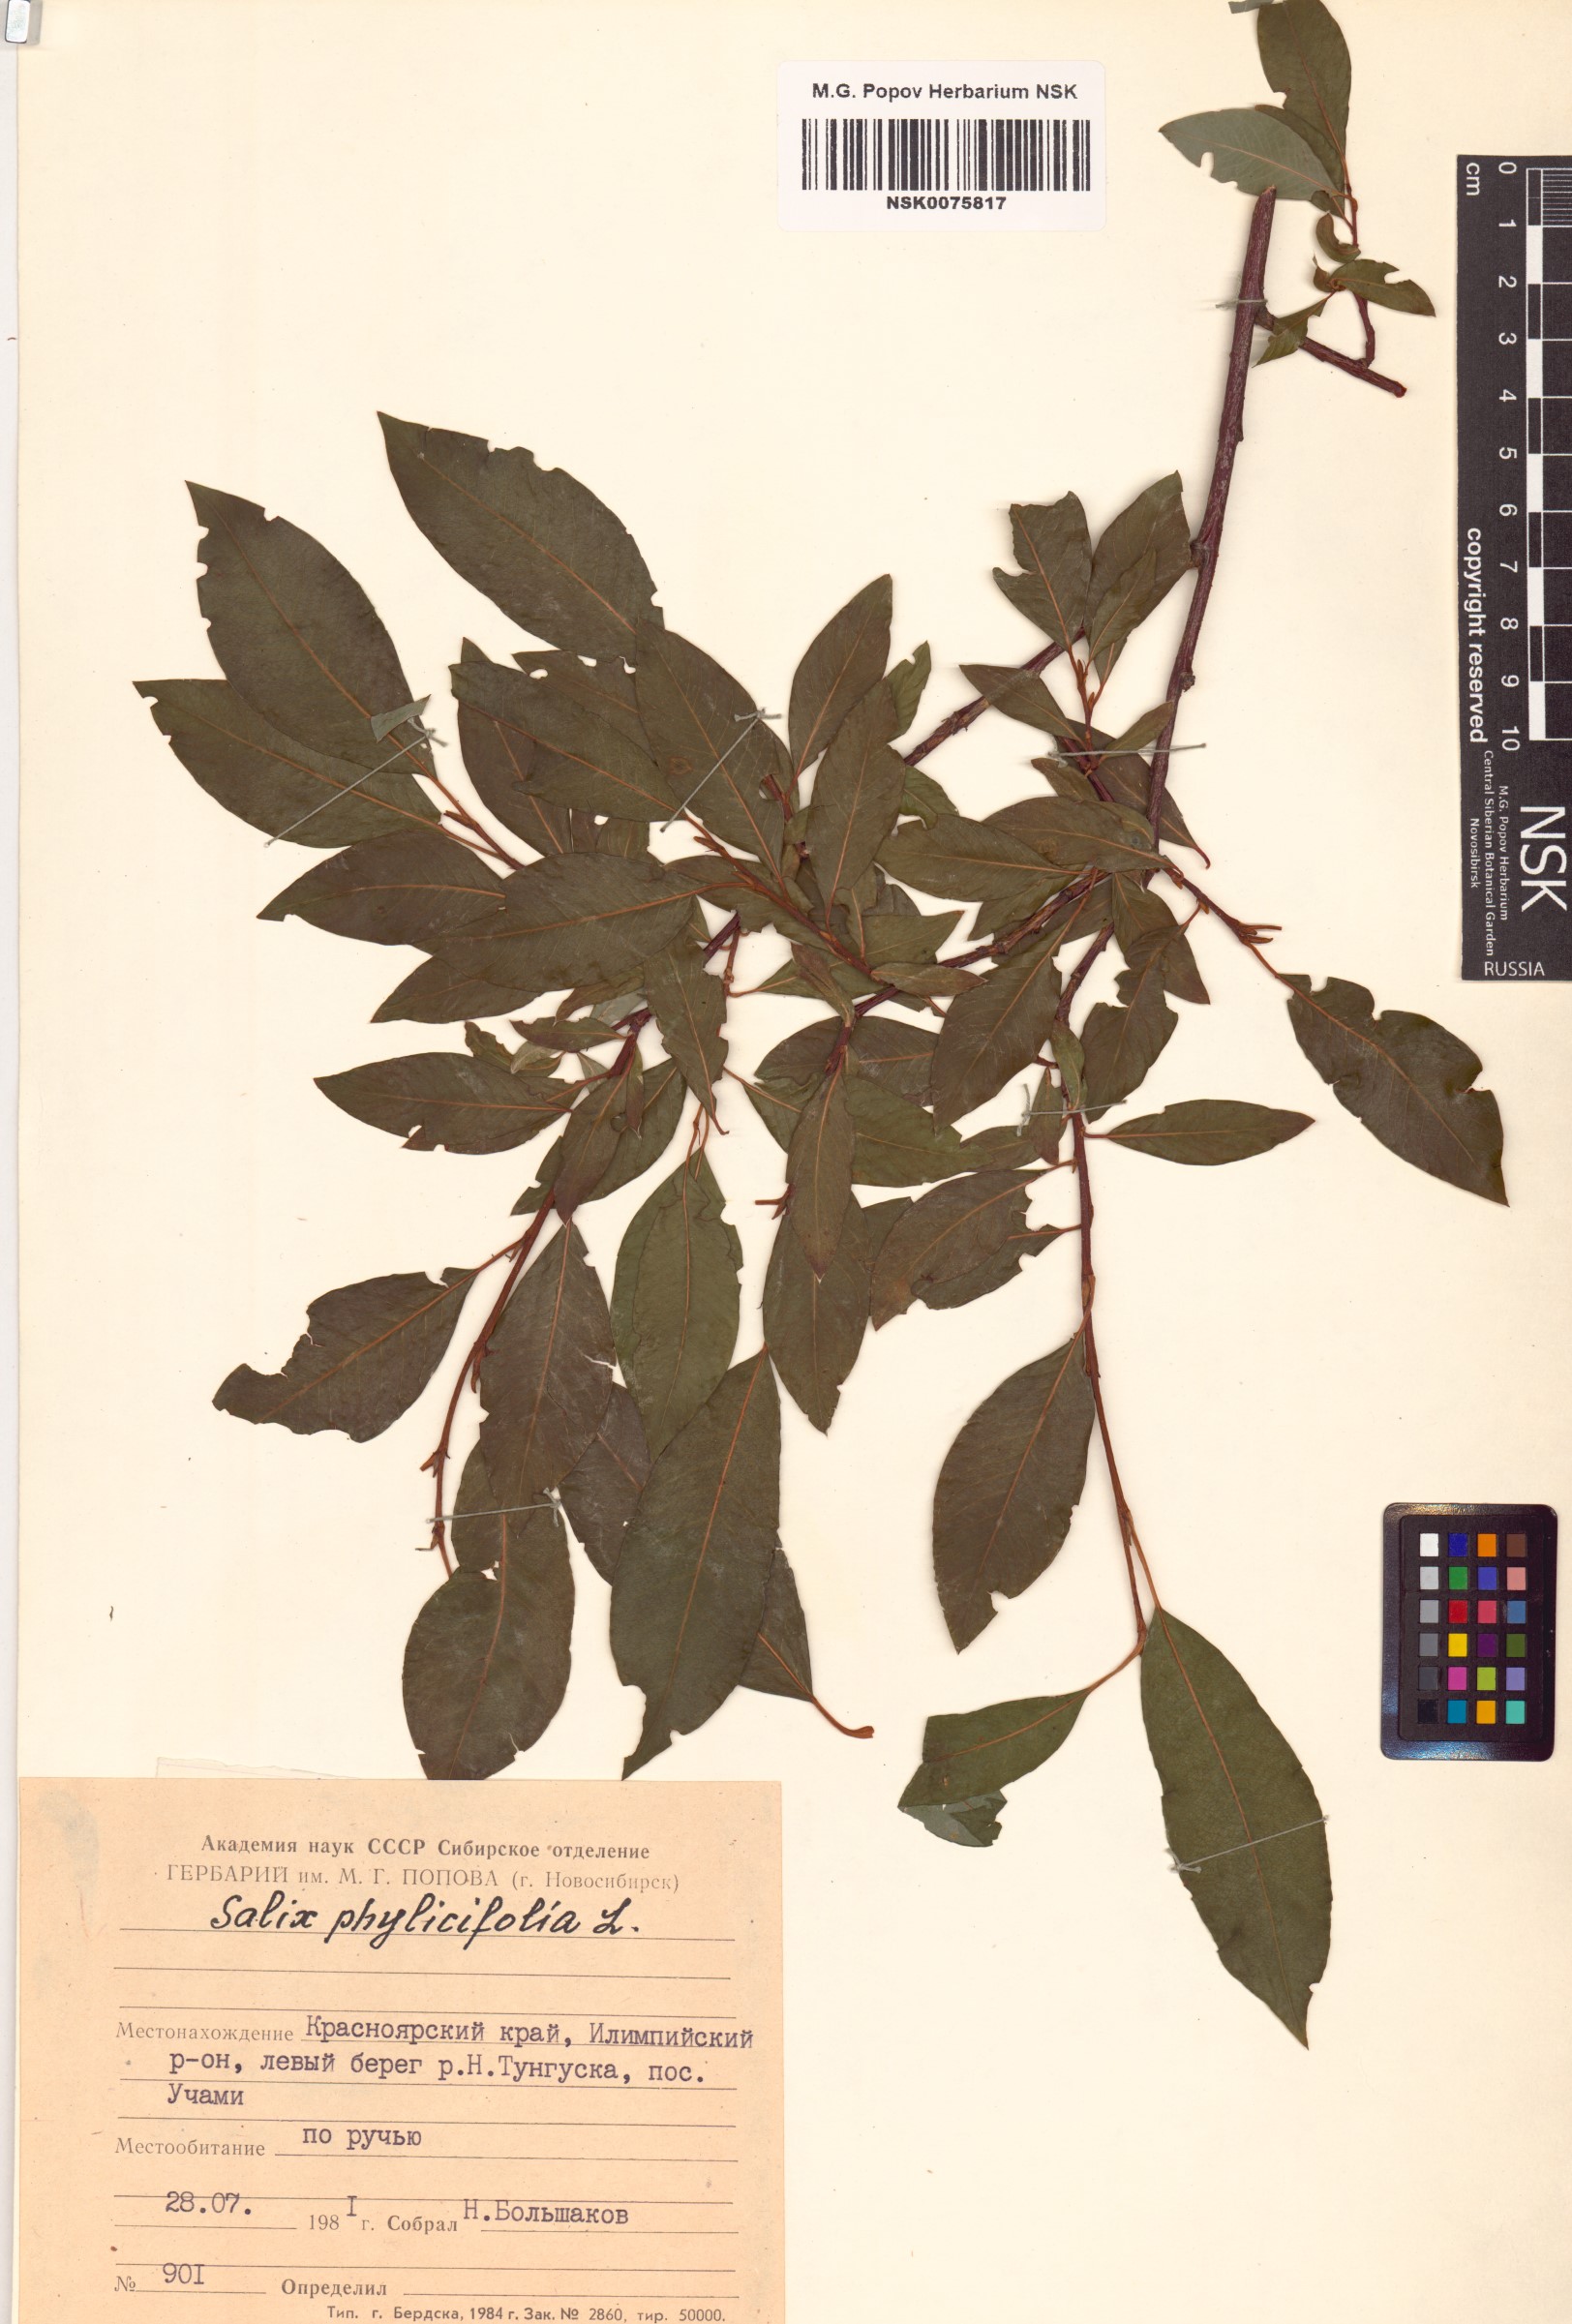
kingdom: Plantae
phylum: Tracheophyta
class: Magnoliopsida
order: Malpighiales
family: Salicaceae
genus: Salix
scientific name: Salix phylicifolia
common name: Tea-leaved willow
